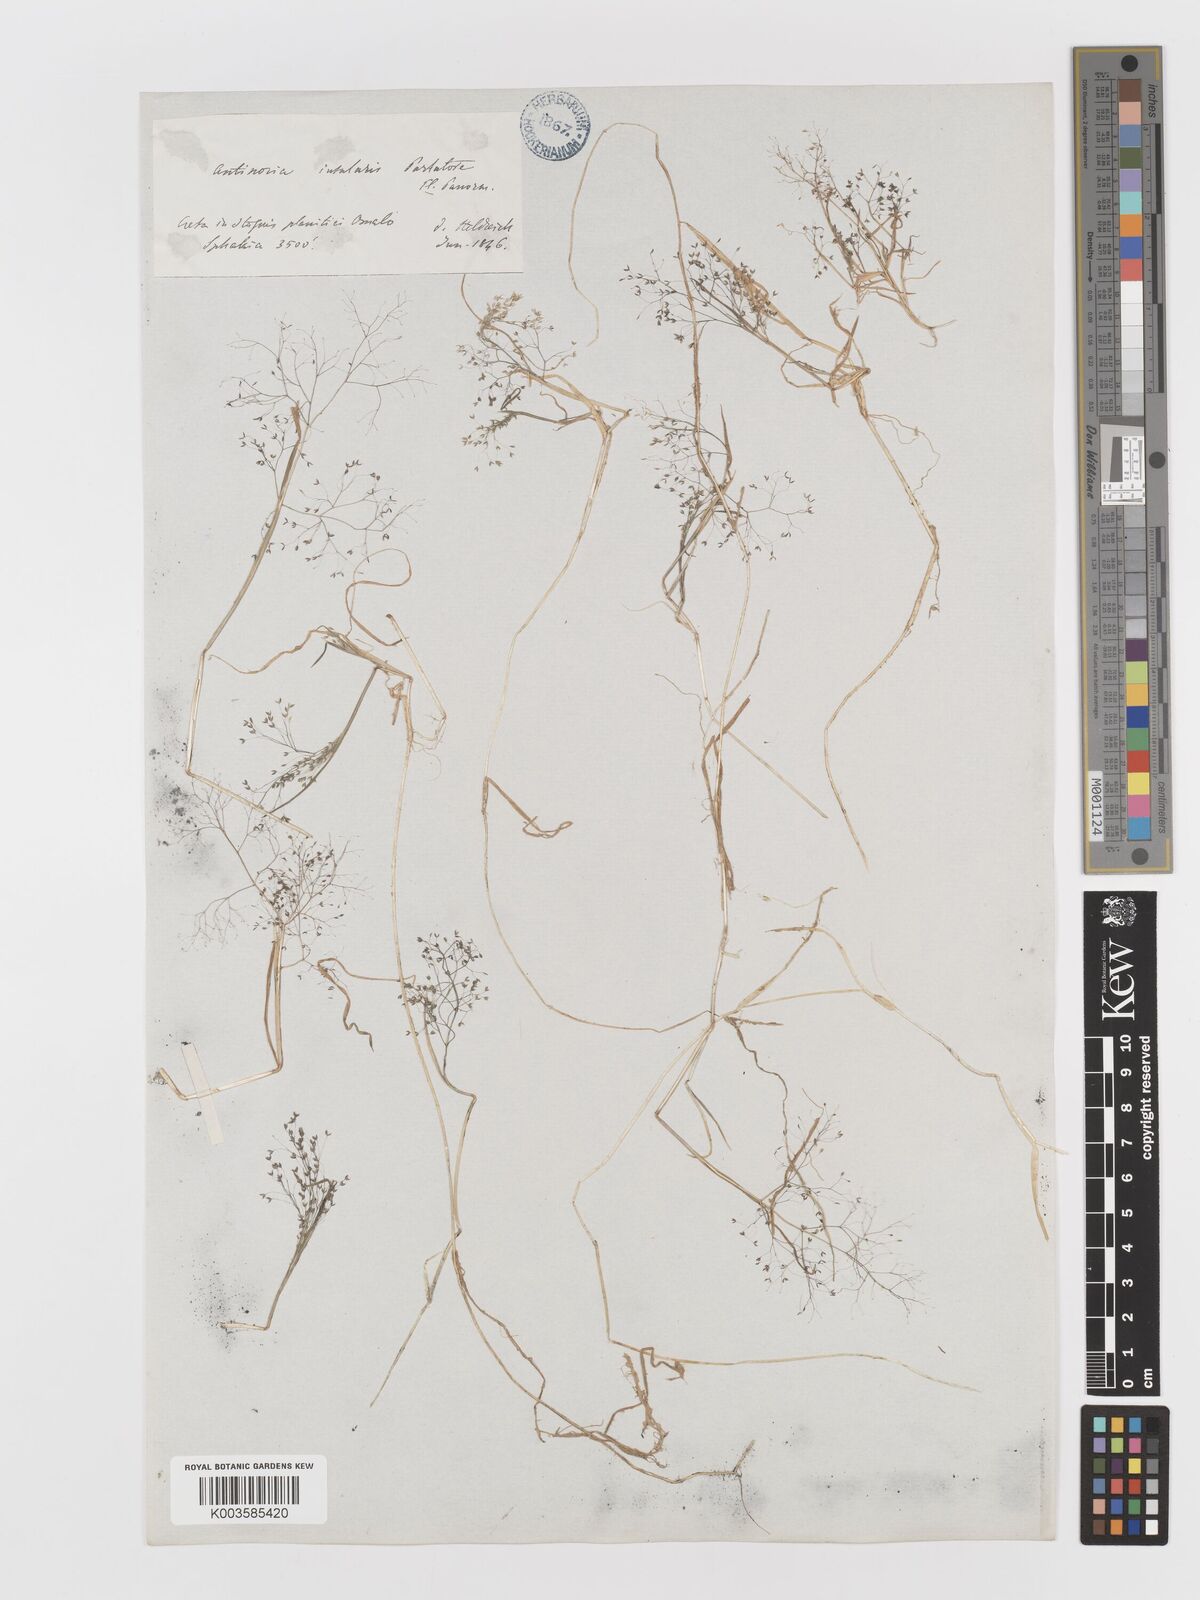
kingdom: Plantae
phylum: Tracheophyta
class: Liliopsida
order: Poales
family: Poaceae
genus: Antinoria
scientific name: Antinoria agrostidea
